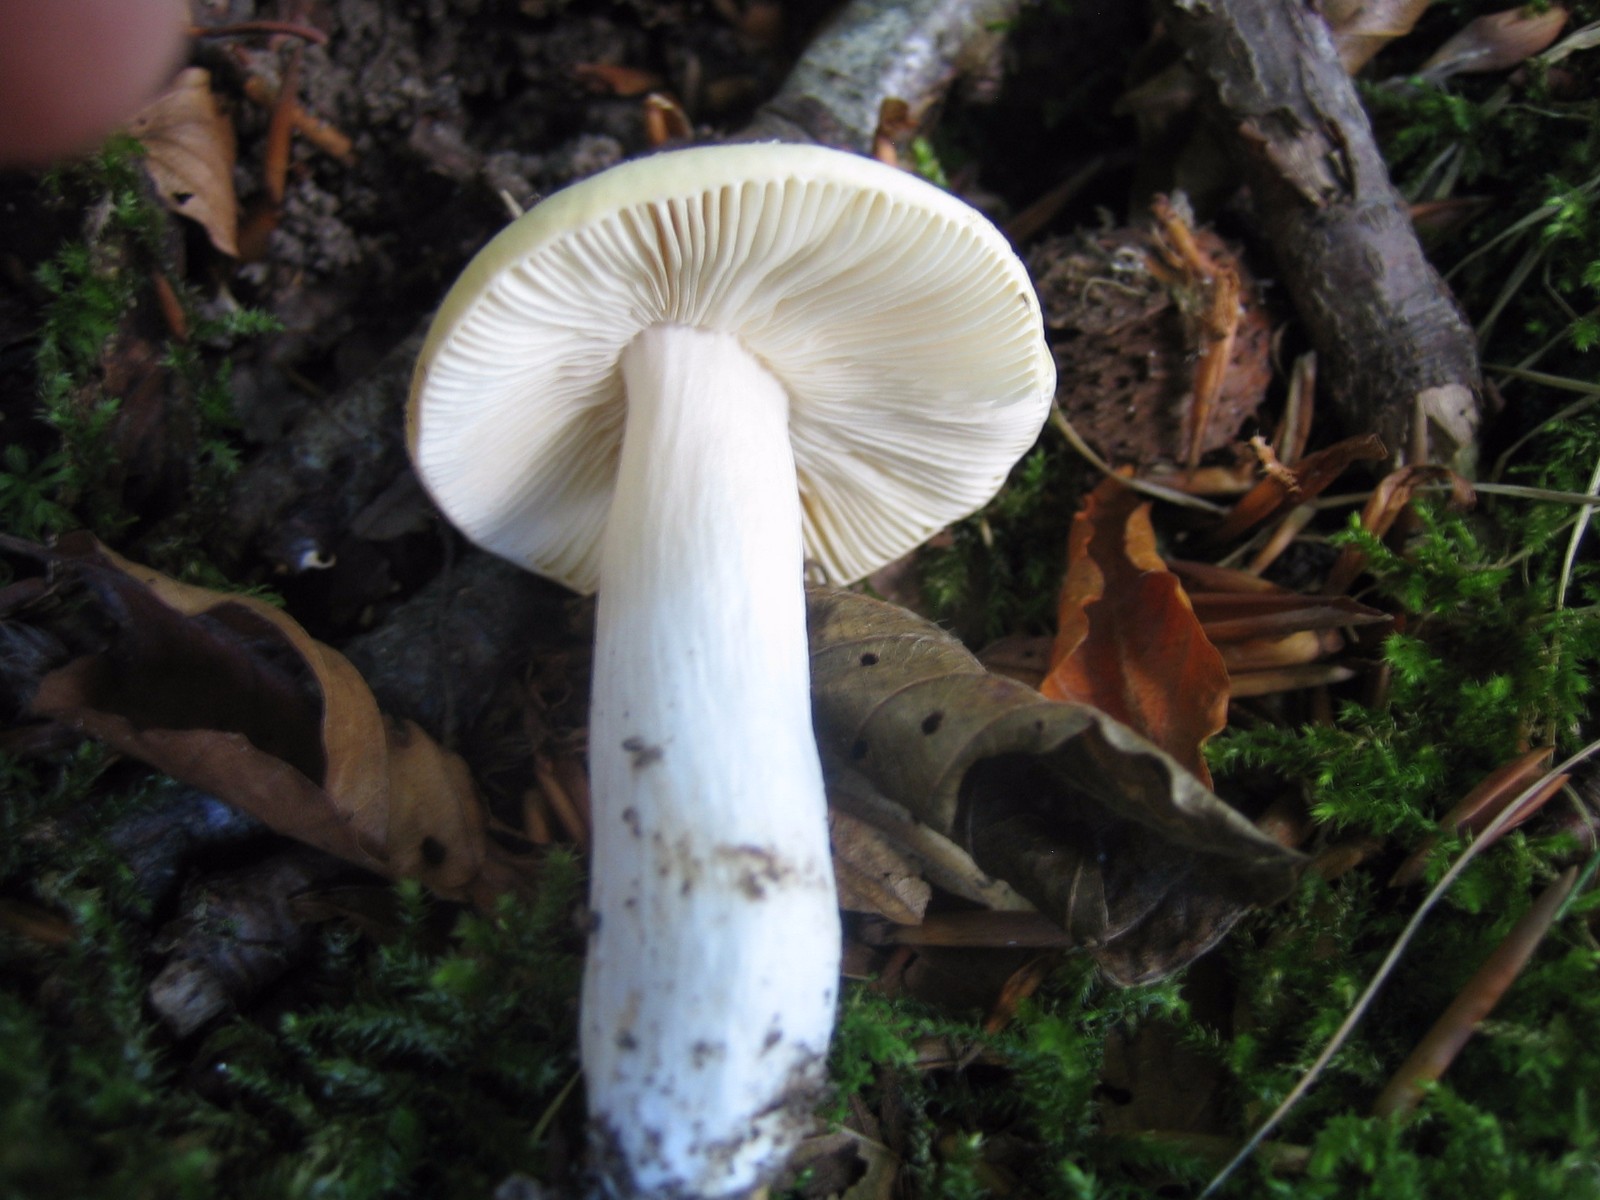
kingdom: Fungi
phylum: Basidiomycota
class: Agaricomycetes
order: Russulales
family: Russulaceae
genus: Russula
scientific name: Russula
